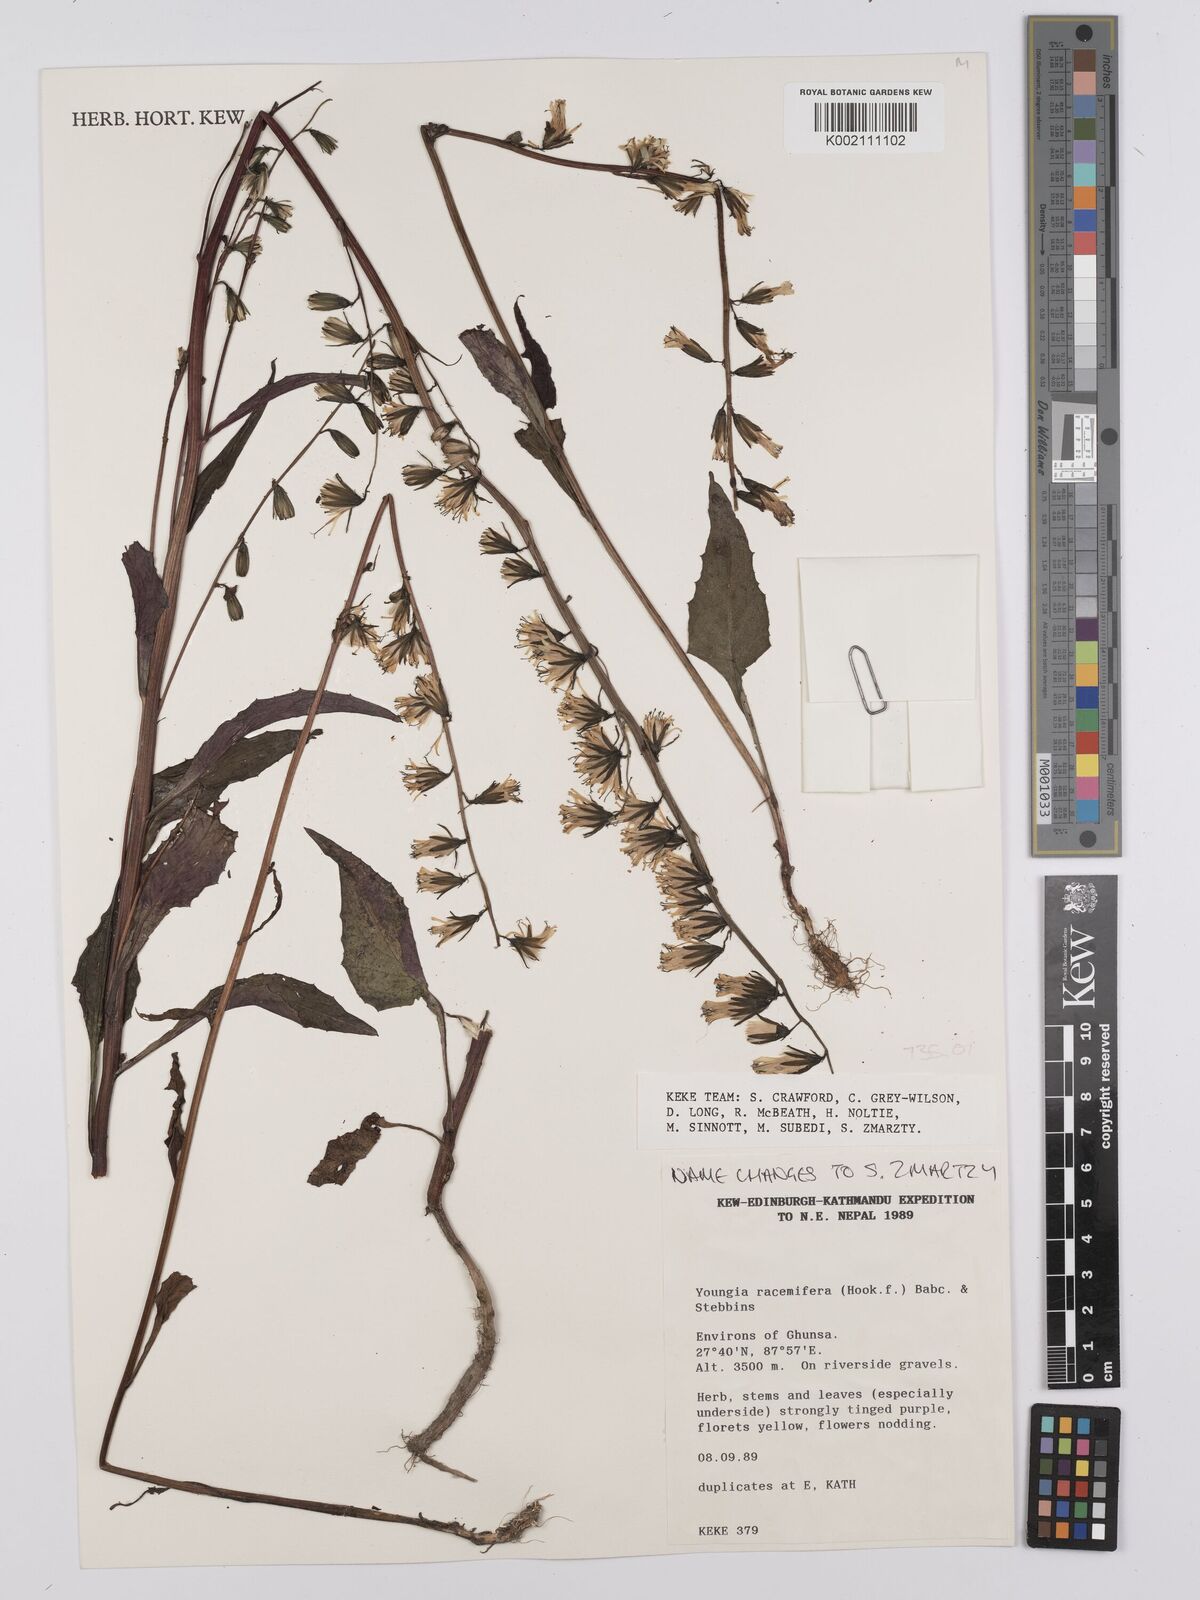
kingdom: Plantae
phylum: Tracheophyta
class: Magnoliopsida
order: Asterales
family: Asteraceae
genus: Youngia
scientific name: Youngia racemifera
